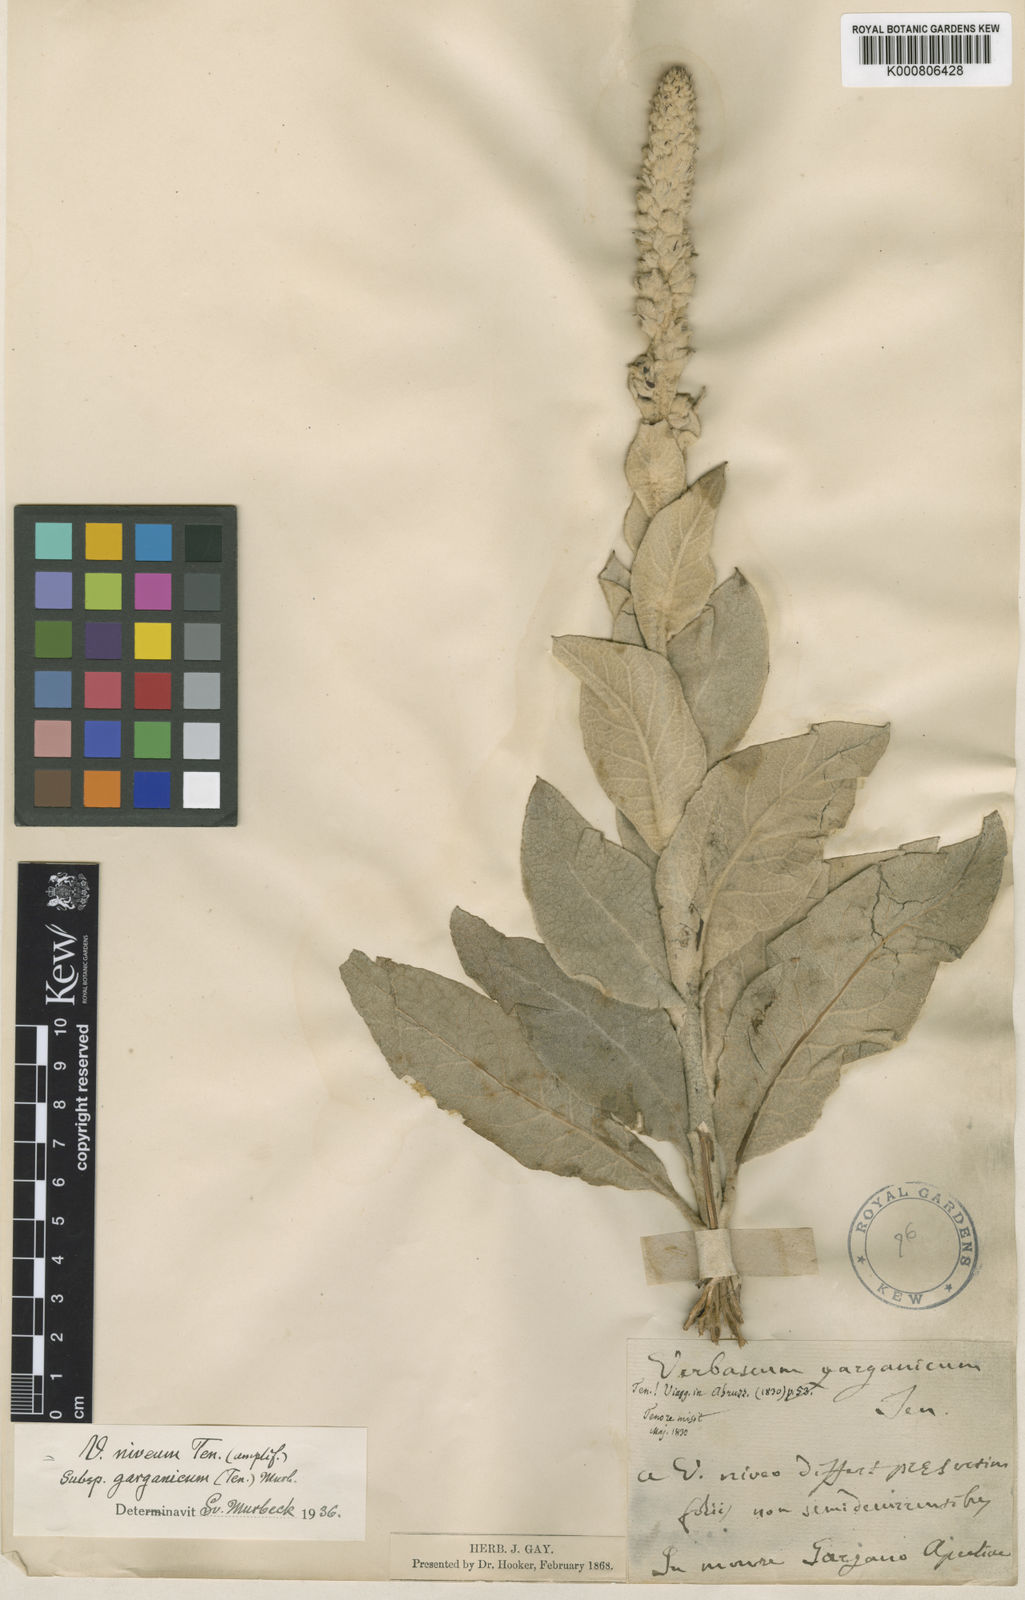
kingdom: Plantae
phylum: Tracheophyta
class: Magnoliopsida
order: Lamiales
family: Scrophulariaceae
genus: Verbascum
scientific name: Verbascum niveum
